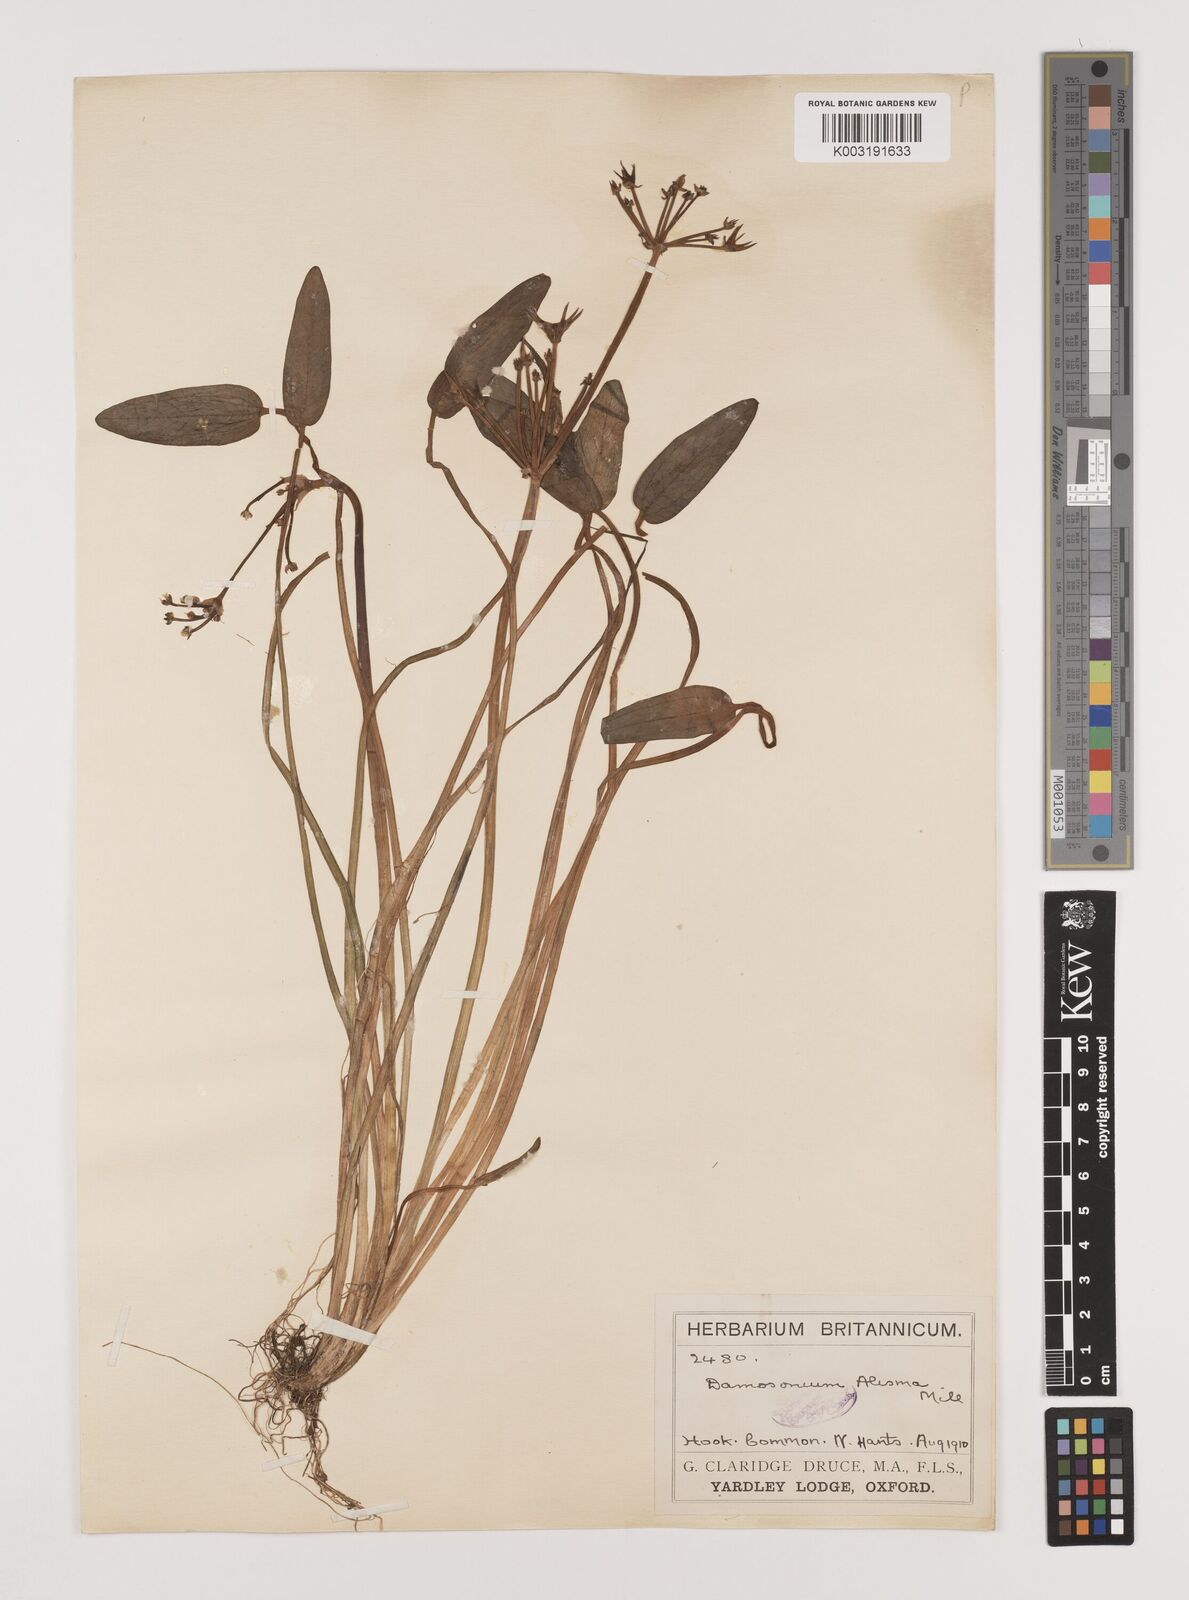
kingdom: Plantae
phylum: Tracheophyta
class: Liliopsida
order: Alismatales
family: Alismataceae
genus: Damasonium
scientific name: Damasonium alisma
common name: Starfruit
